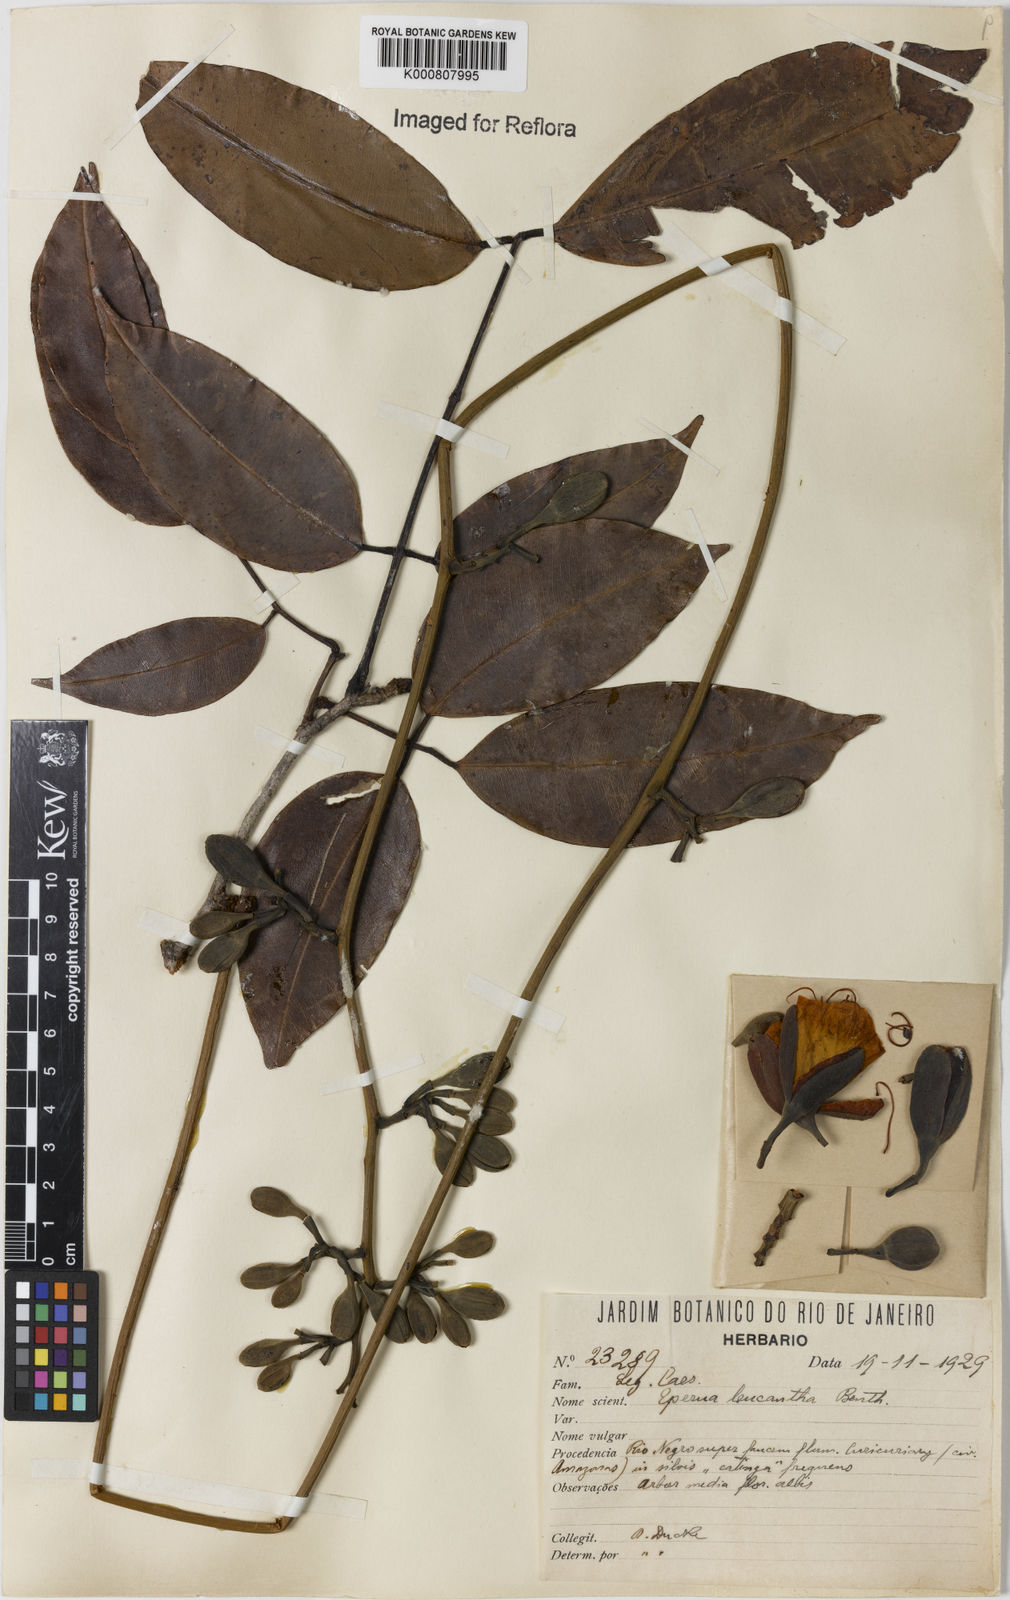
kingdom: Plantae
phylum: Tracheophyta
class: Magnoliopsida
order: Fabales
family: Fabaceae
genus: Eperua
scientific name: Eperua leucantha
